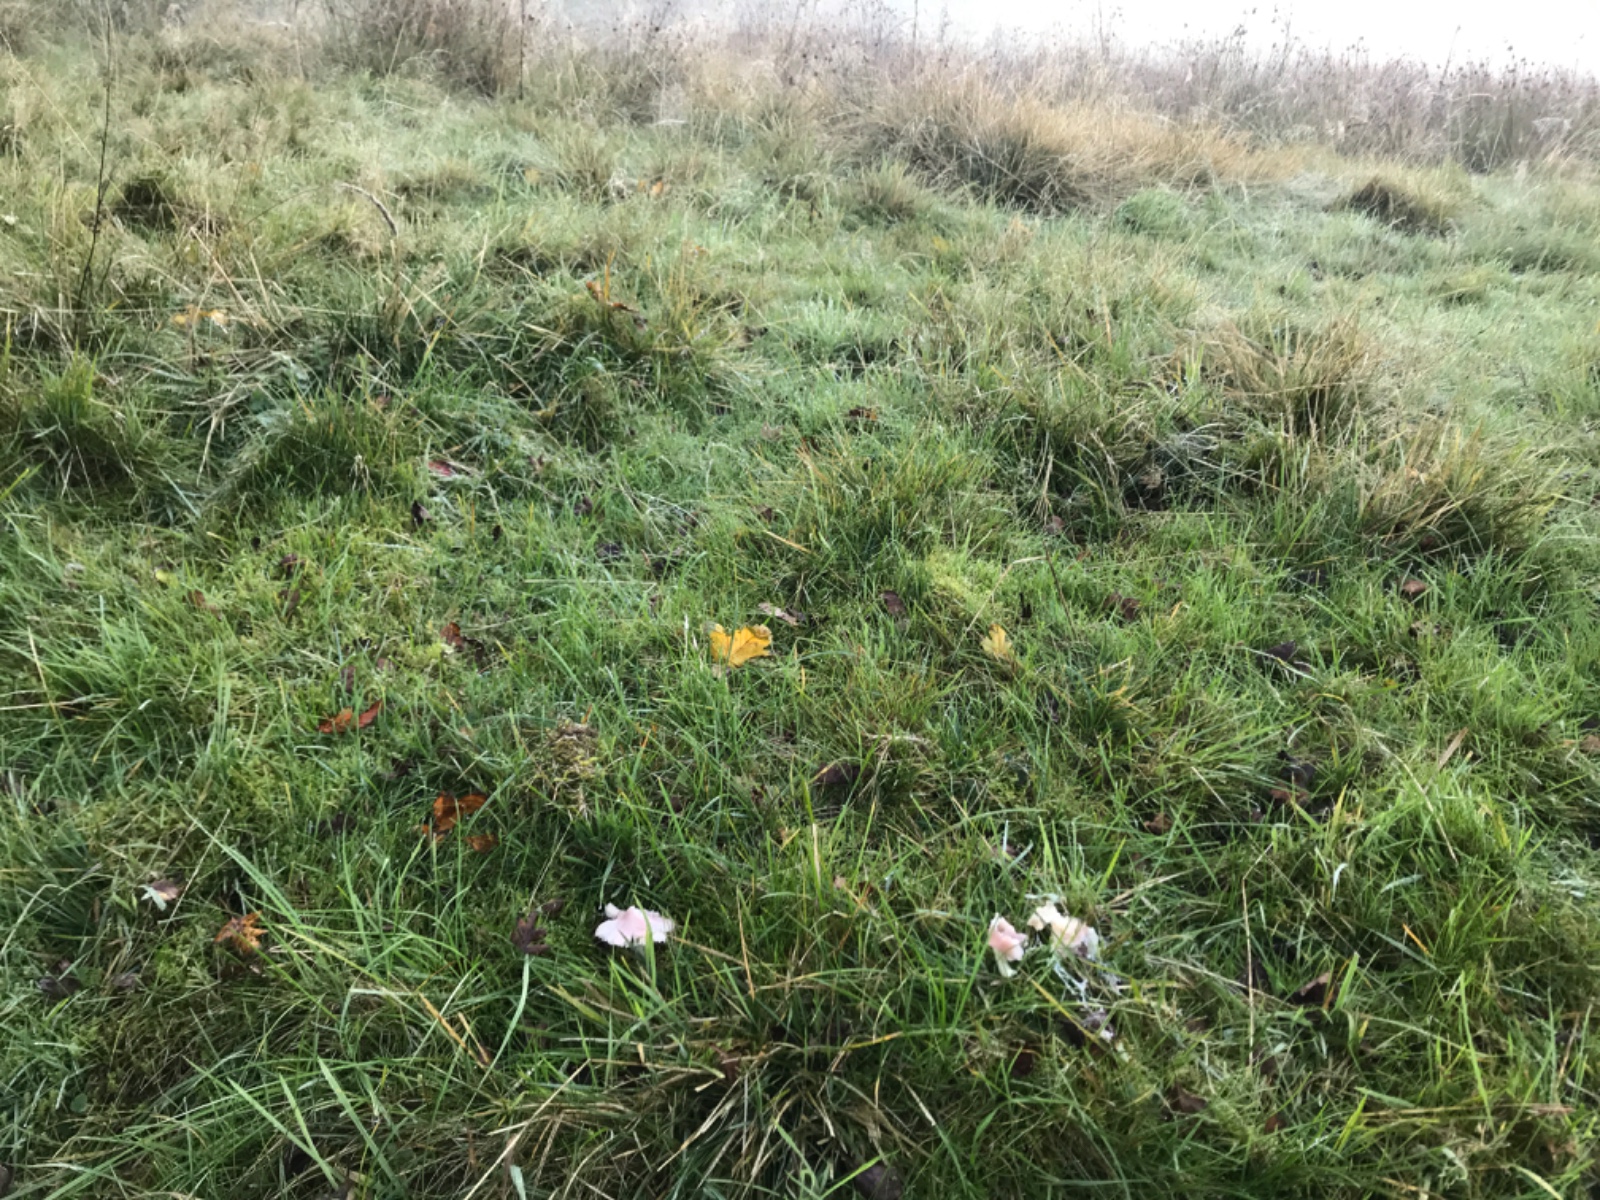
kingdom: Fungi
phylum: Basidiomycota
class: Agaricomycetes
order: Agaricales
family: Hygrophoraceae
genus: Porpolomopsis
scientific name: Porpolomopsis calyptriformis
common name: rosenrød vokshat
